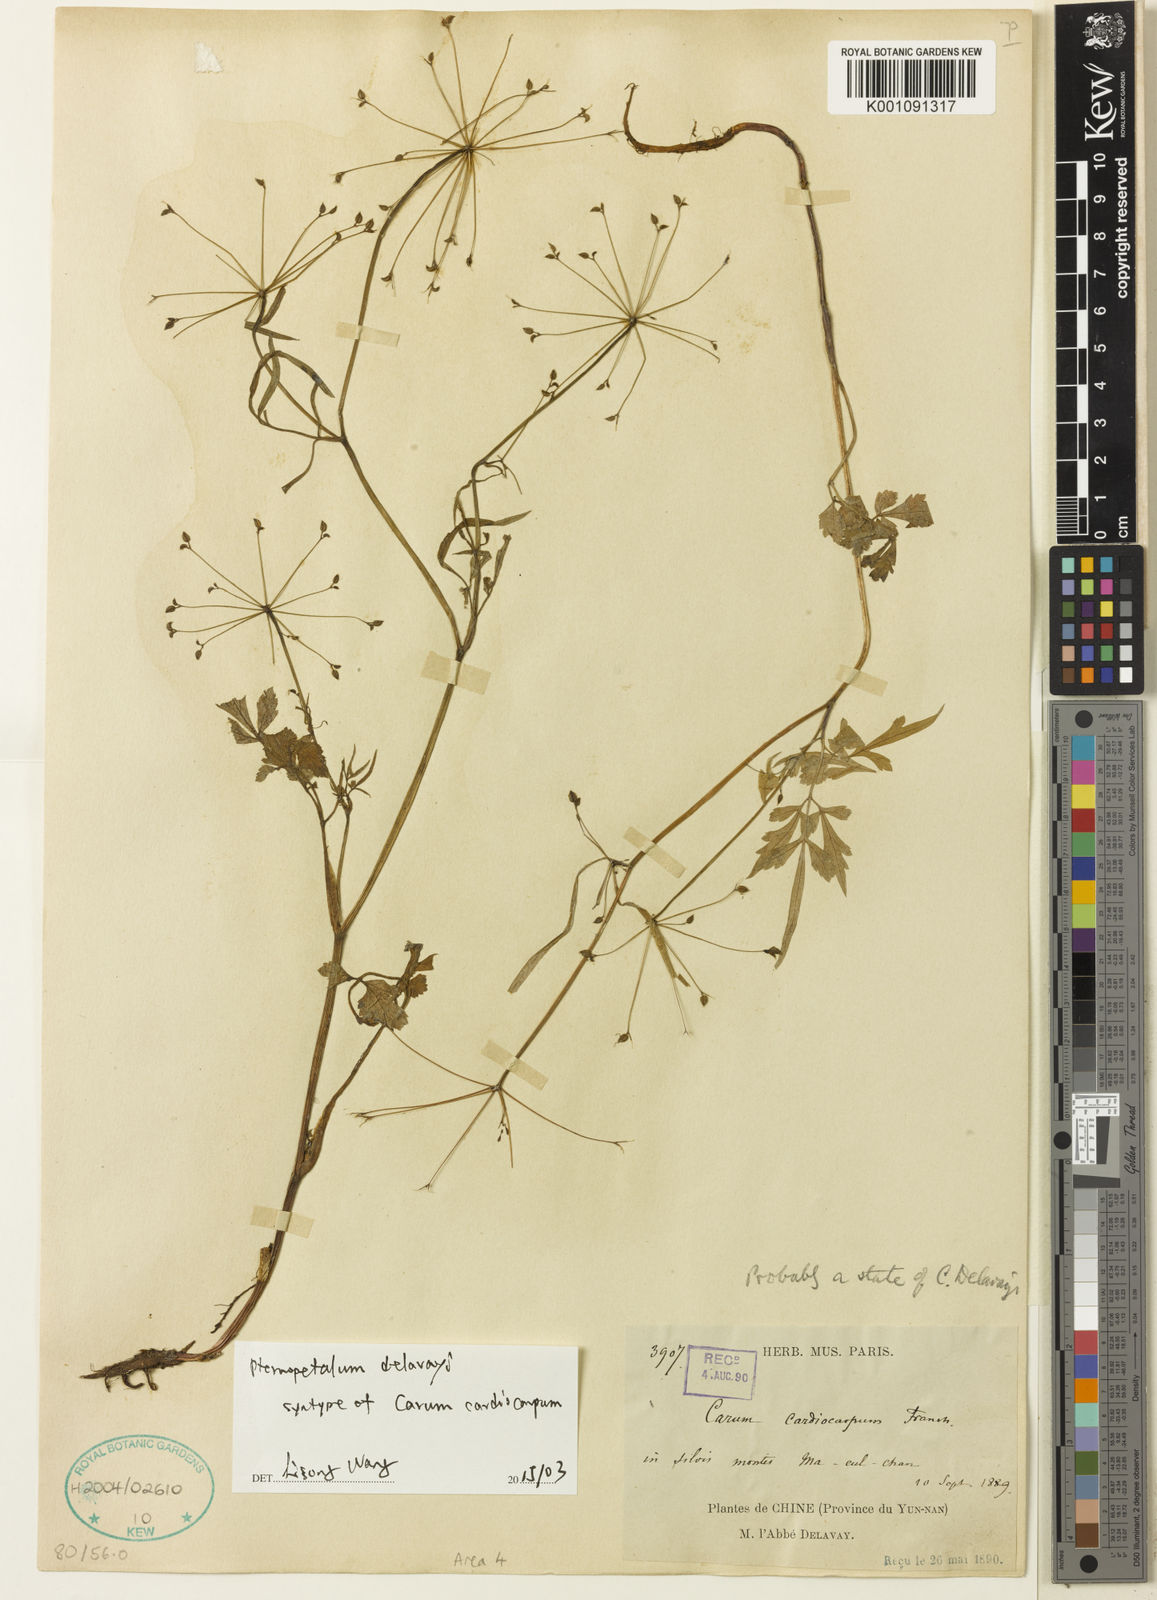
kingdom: Plantae
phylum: Tracheophyta
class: Magnoliopsida
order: Apiales
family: Apiaceae
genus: Pternopetalum
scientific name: Pternopetalum delavayi
